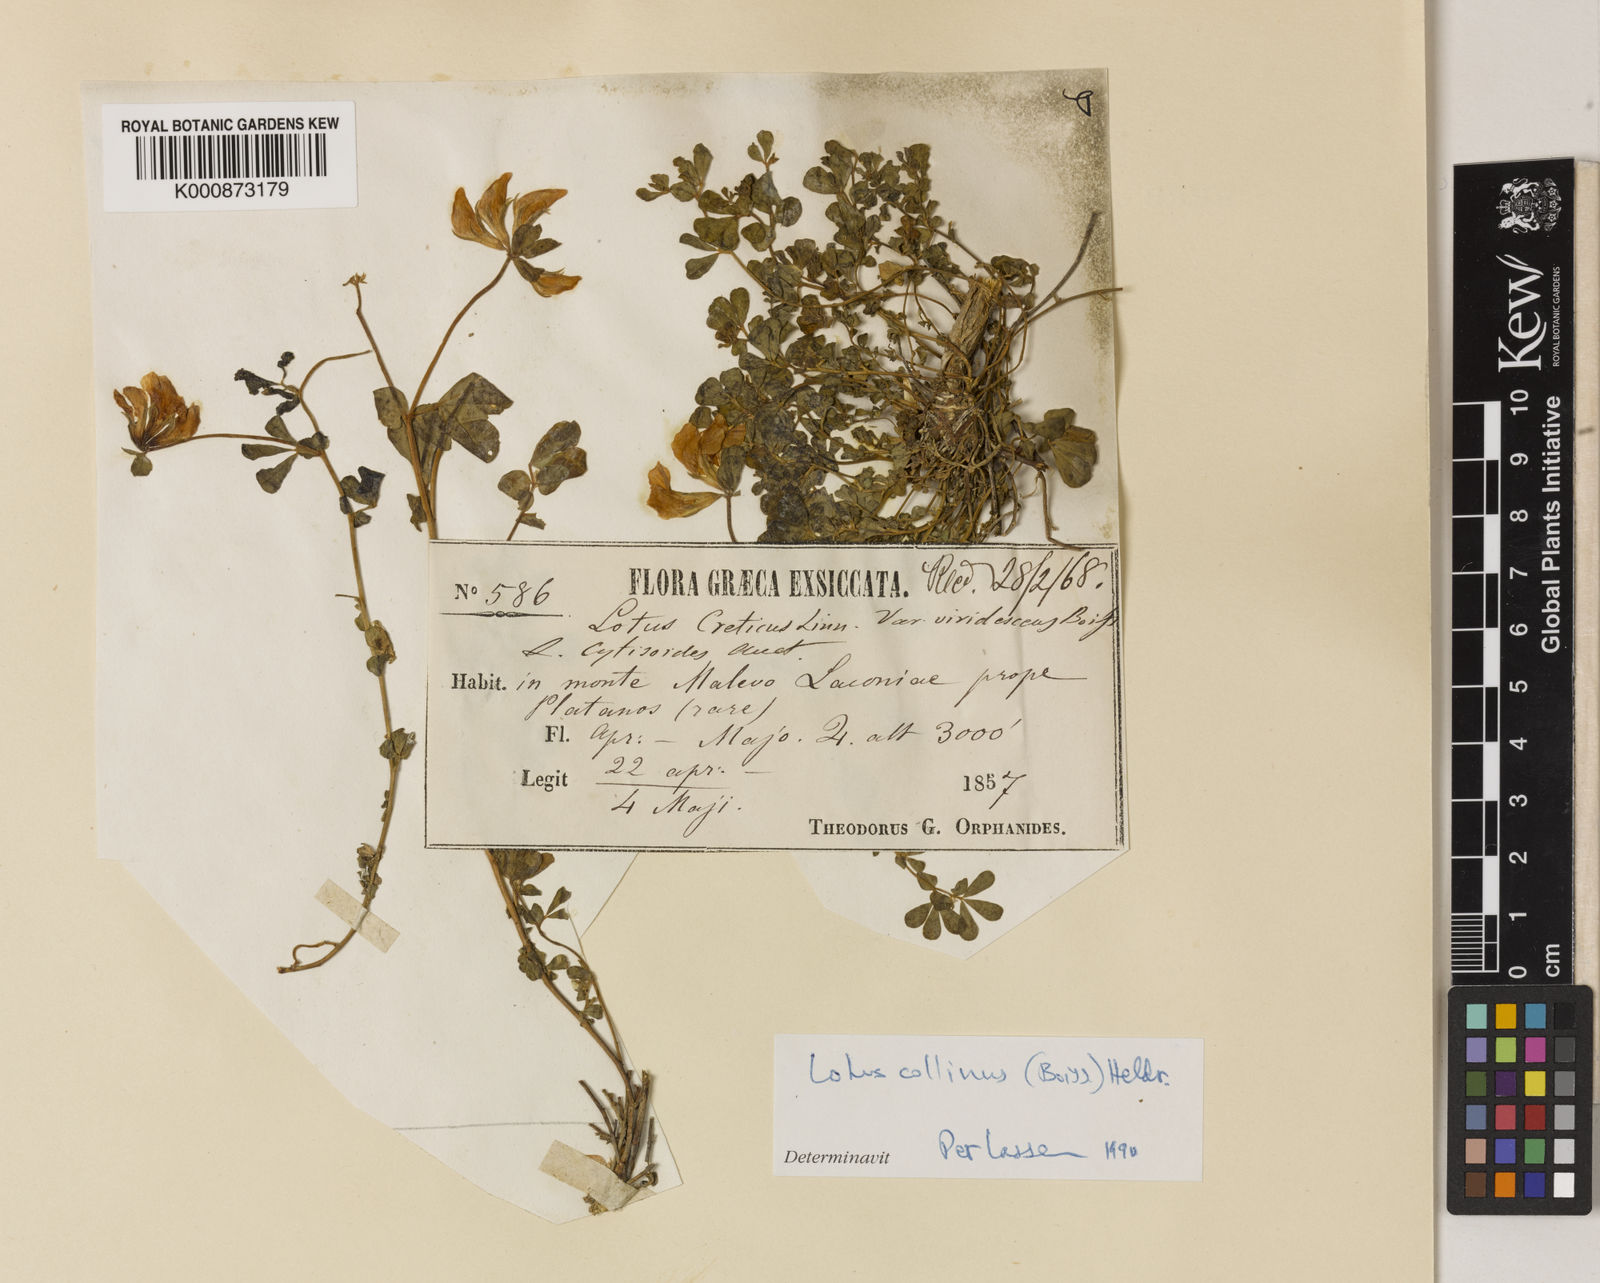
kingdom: Plantae
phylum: Tracheophyta
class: Magnoliopsida
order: Fabales
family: Fabaceae
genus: Lotus
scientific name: Lotus longisiliquosus
